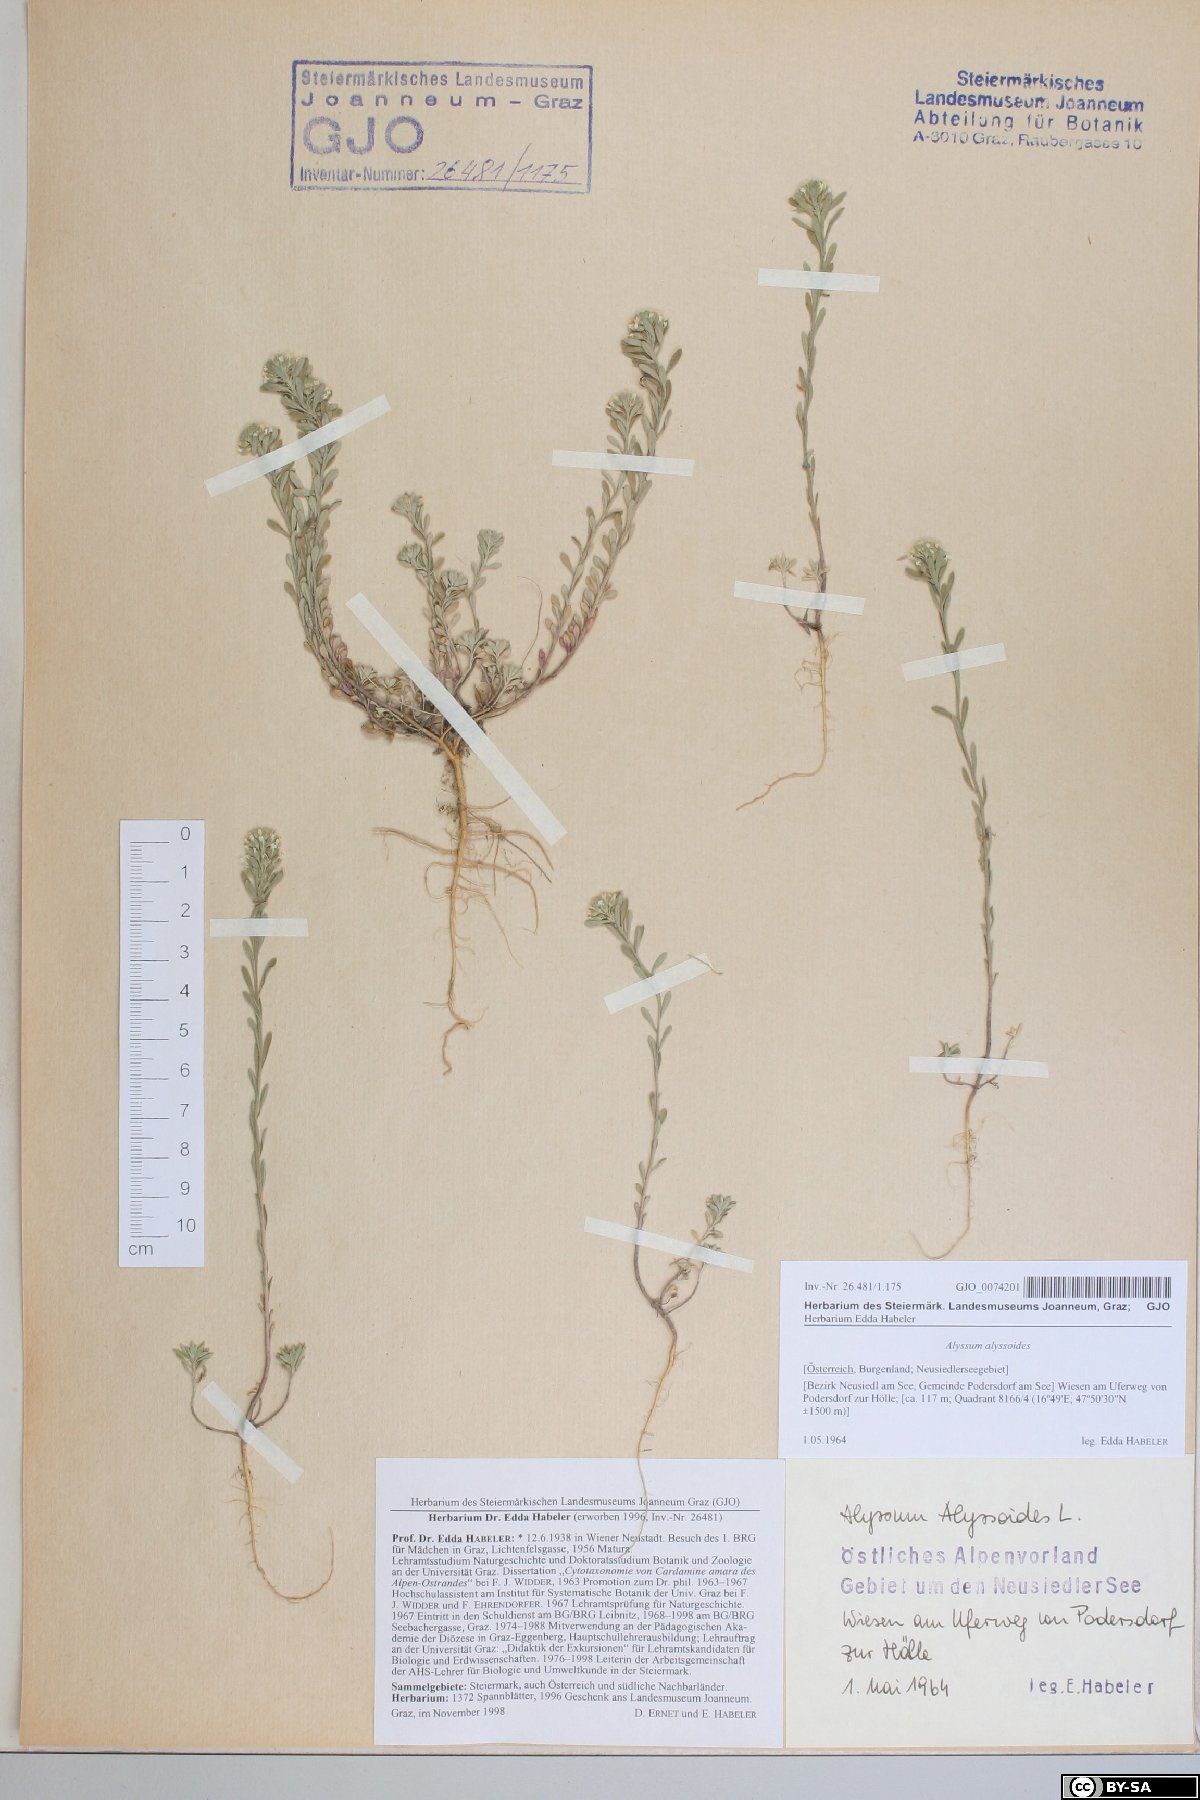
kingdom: Plantae
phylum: Tracheophyta
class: Magnoliopsida
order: Brassicales
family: Brassicaceae
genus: Alyssum
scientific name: Alyssum alyssoides
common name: Small alison
